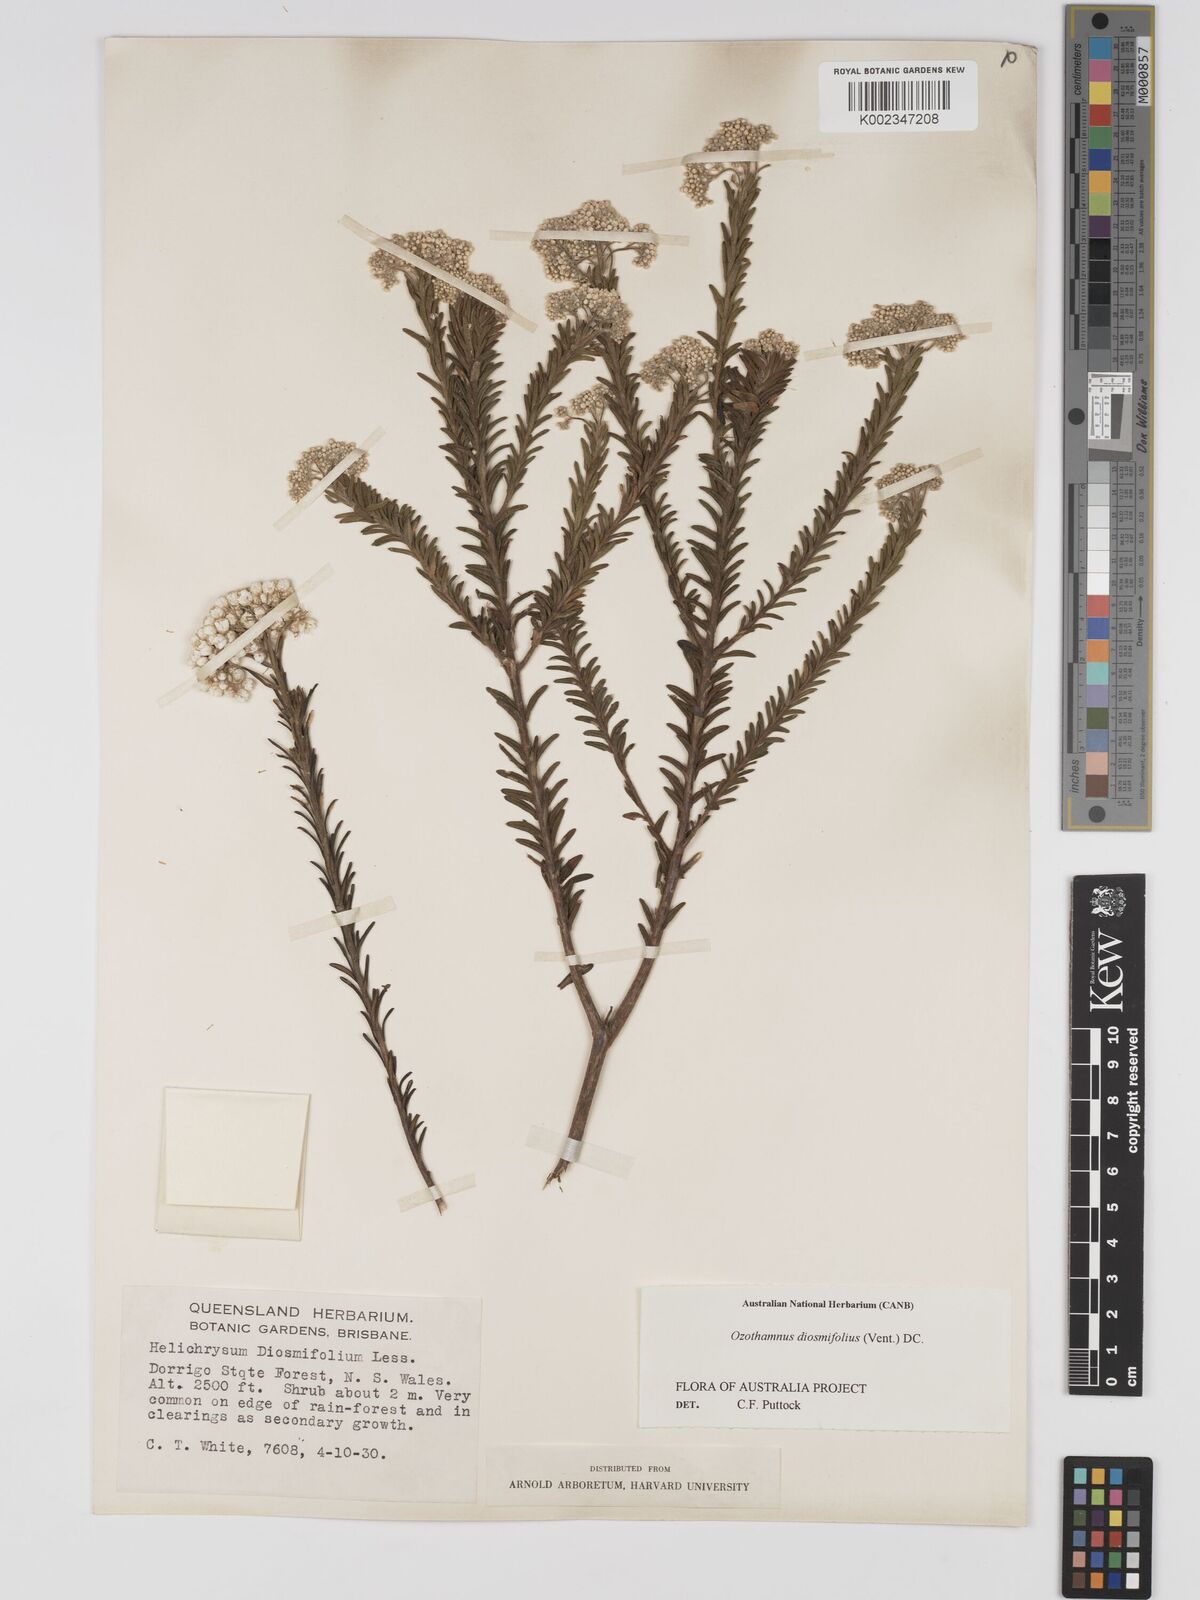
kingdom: Plantae
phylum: Tracheophyta
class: Magnoliopsida
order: Asterales
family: Asteraceae
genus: Ozothamnus
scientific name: Ozothamnus diosmifolius
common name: White-dogwood
